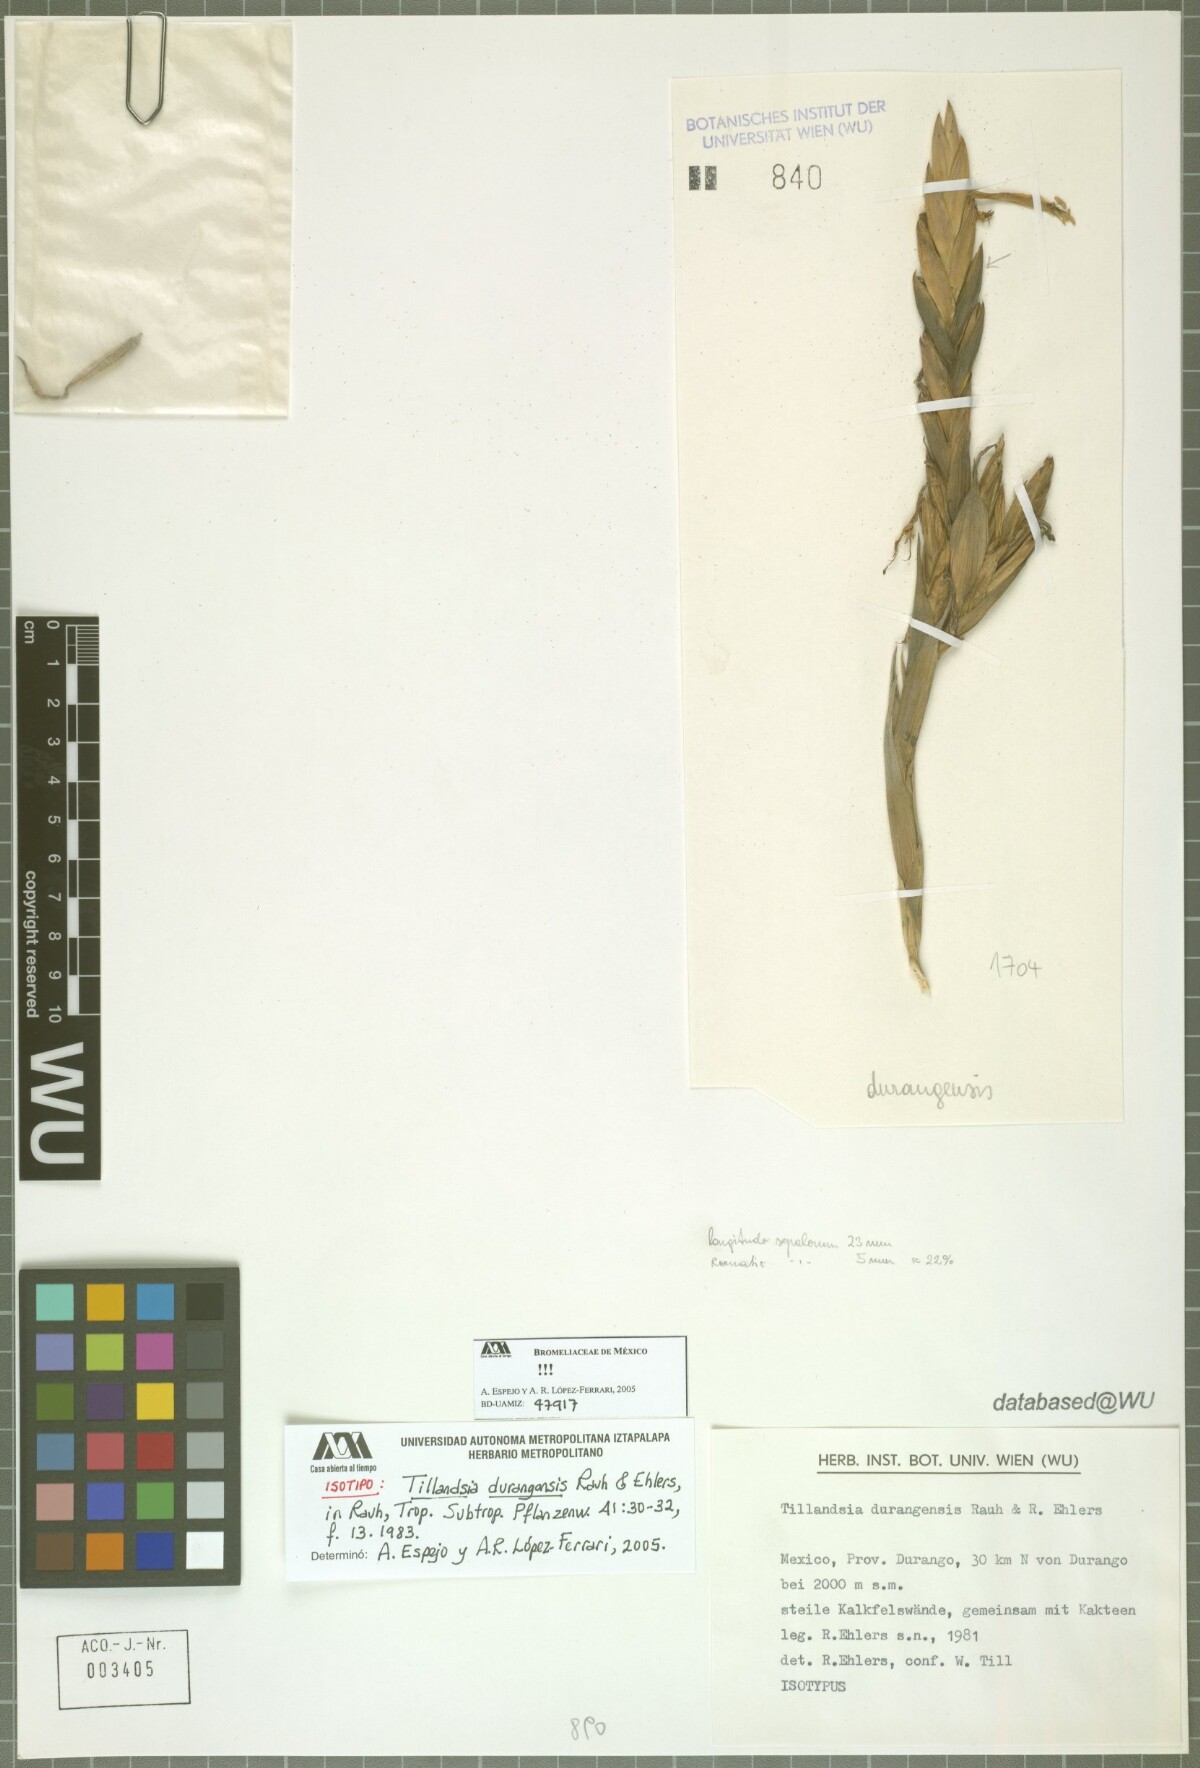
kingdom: Plantae
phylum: Tracheophyta
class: Liliopsida
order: Poales
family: Bromeliaceae
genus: Tillandsia
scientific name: Tillandsia durangensis
